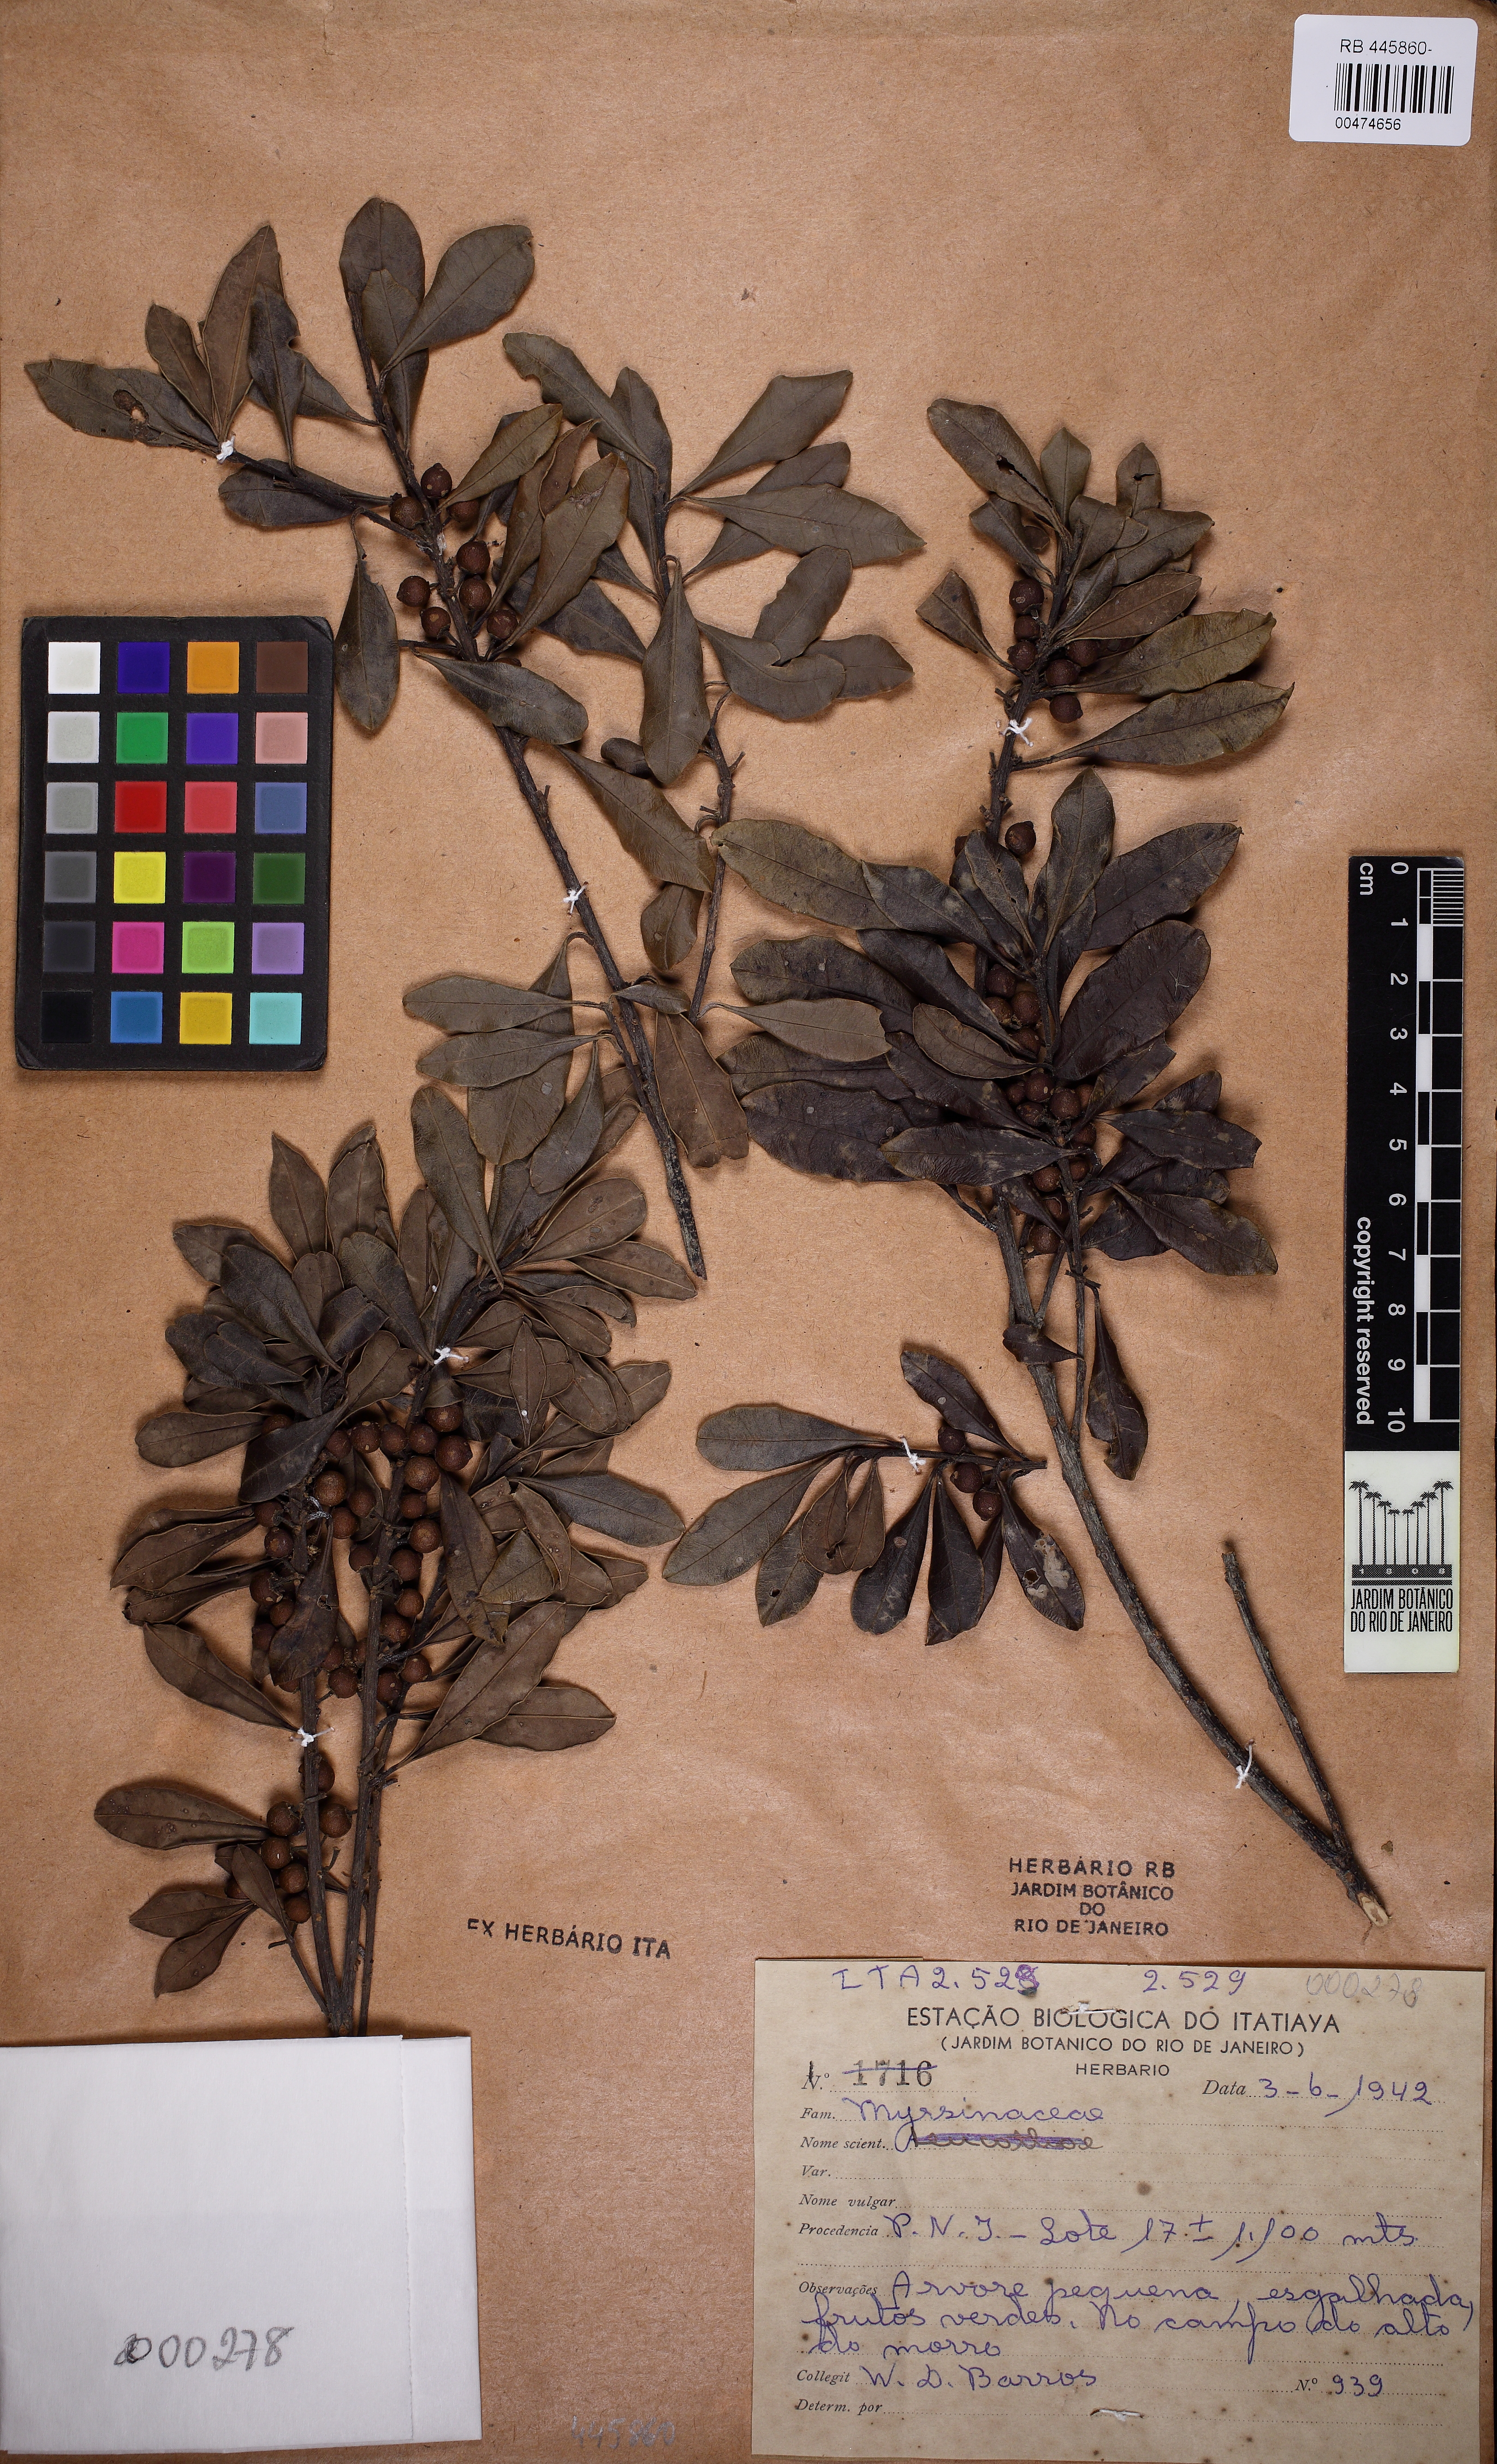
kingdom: Plantae
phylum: Tracheophyta
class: Magnoliopsida
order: Ericales
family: Primulaceae
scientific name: Primulaceae
